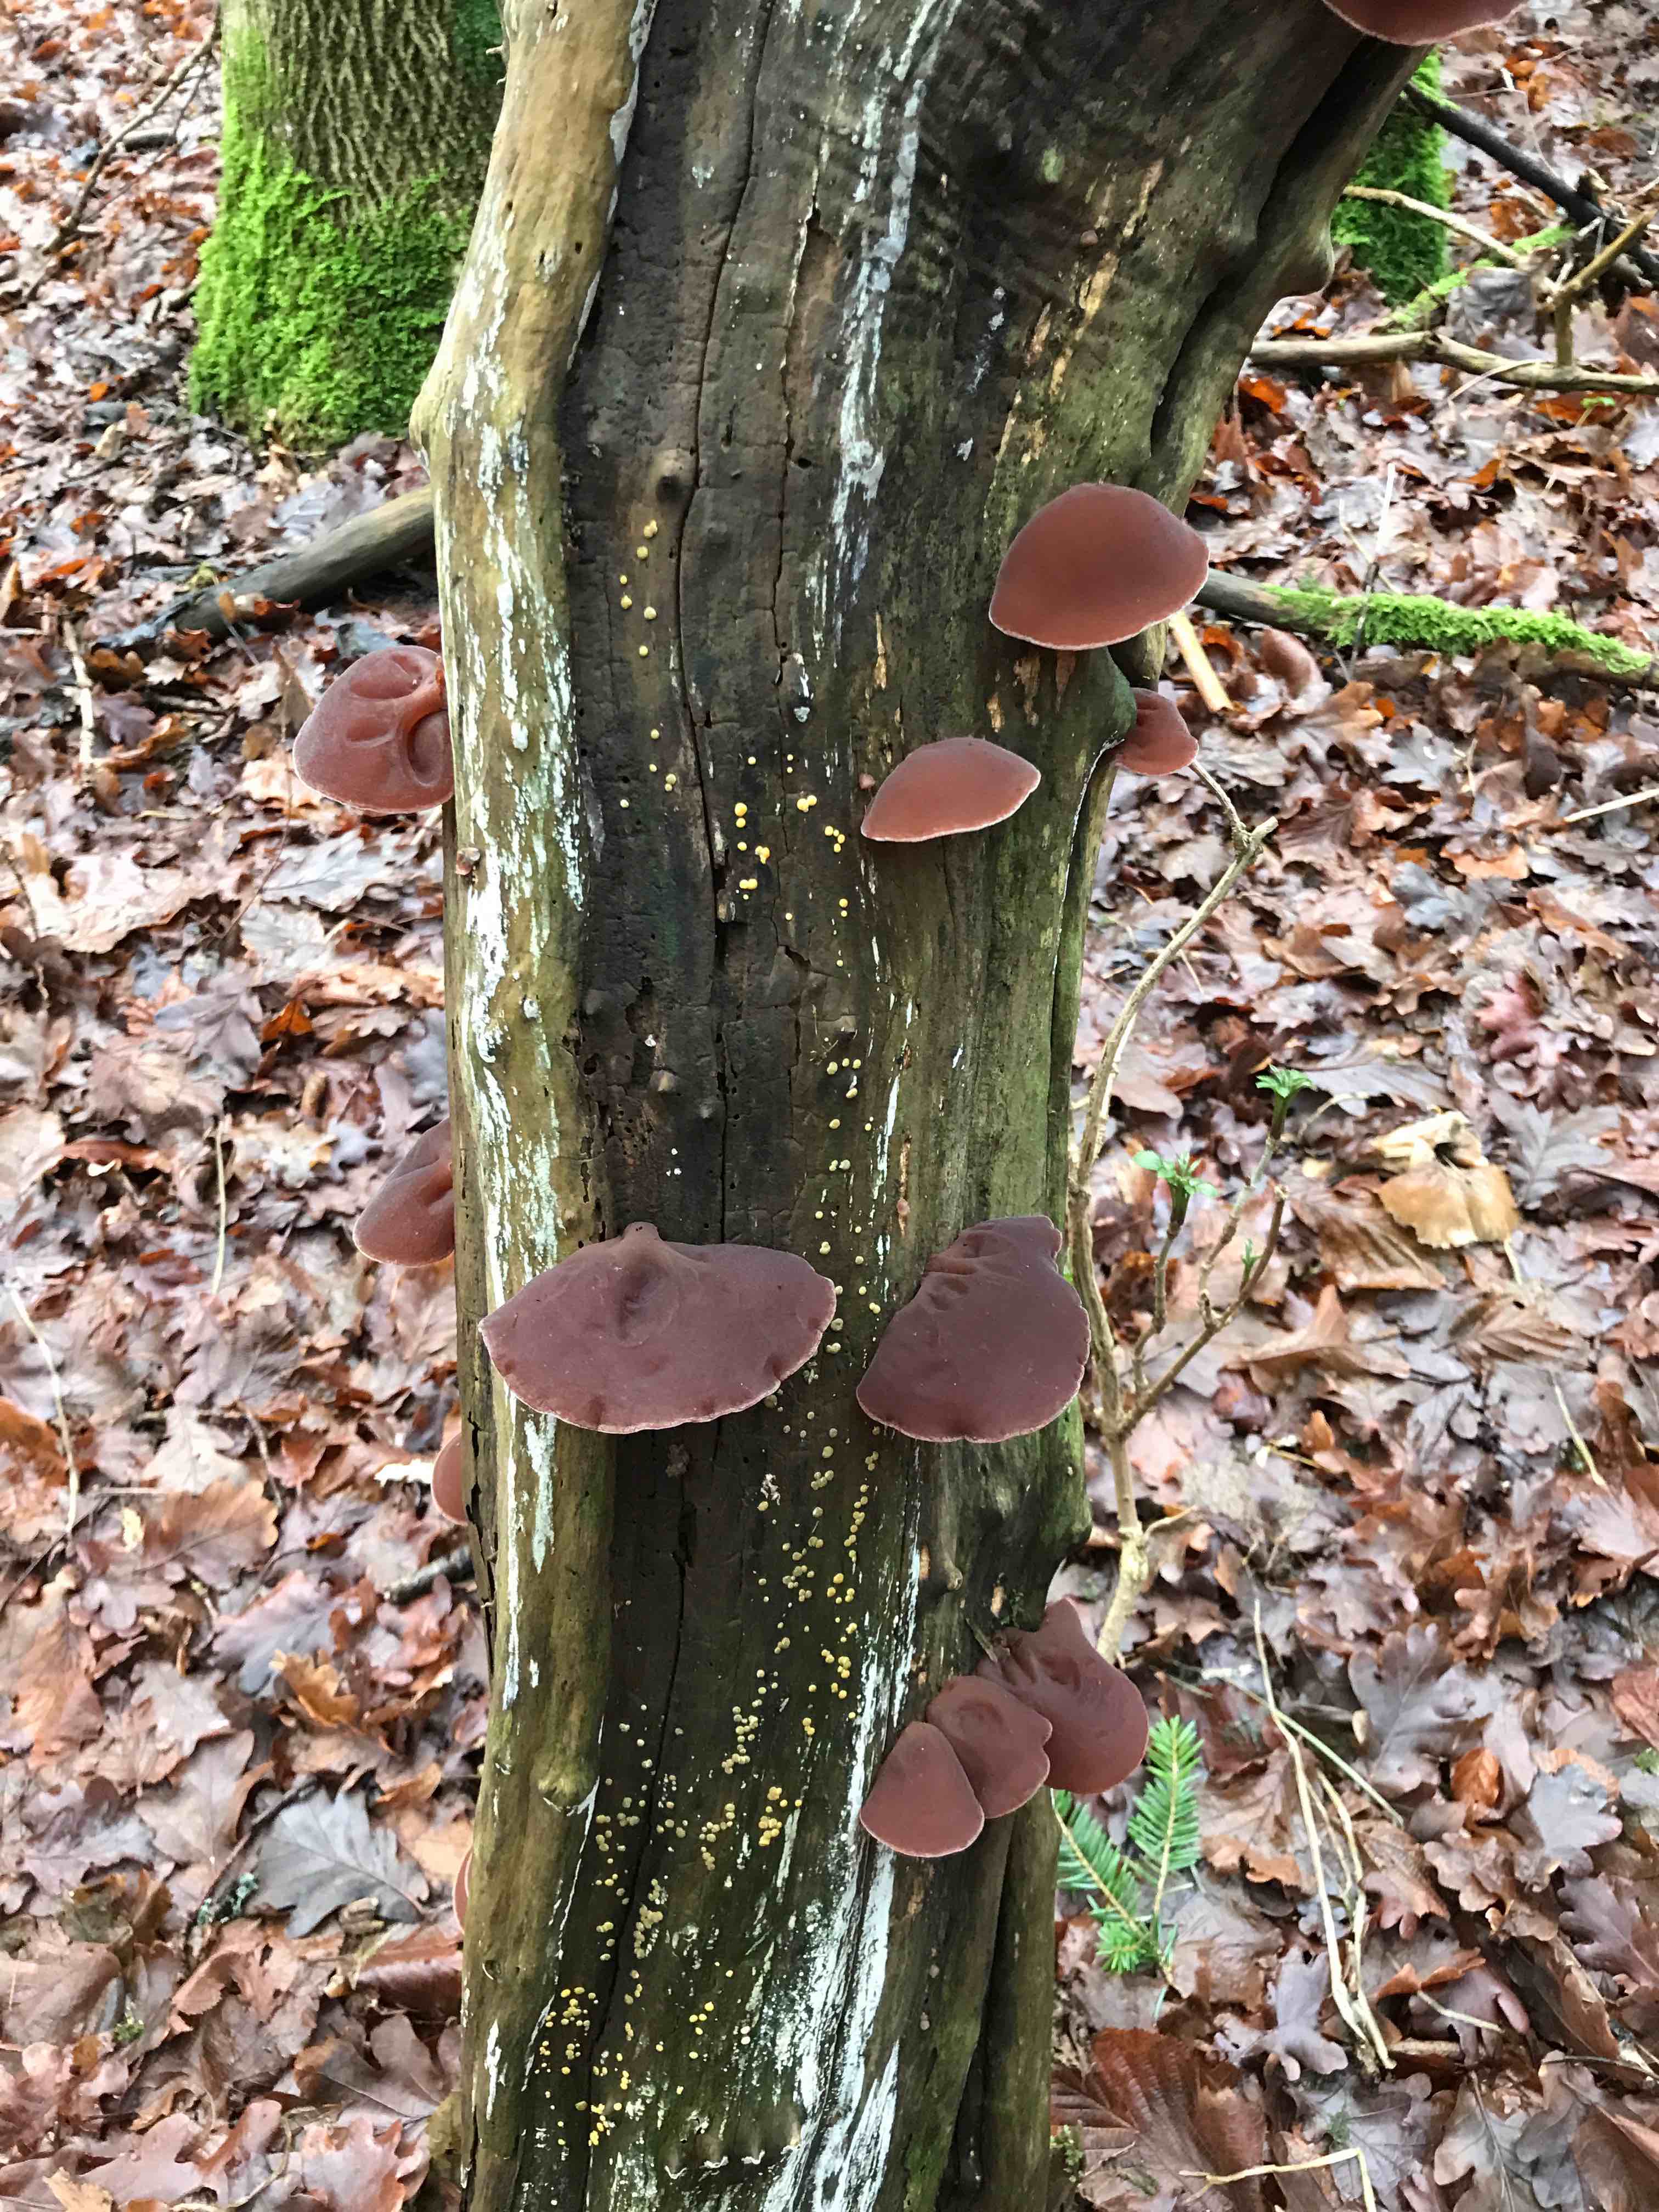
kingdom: Fungi
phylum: Basidiomycota
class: Agaricomycetes
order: Auriculariales
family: Auriculariaceae
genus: Auricularia
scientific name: Auricularia auricula-judae
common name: almindelig judasøre
